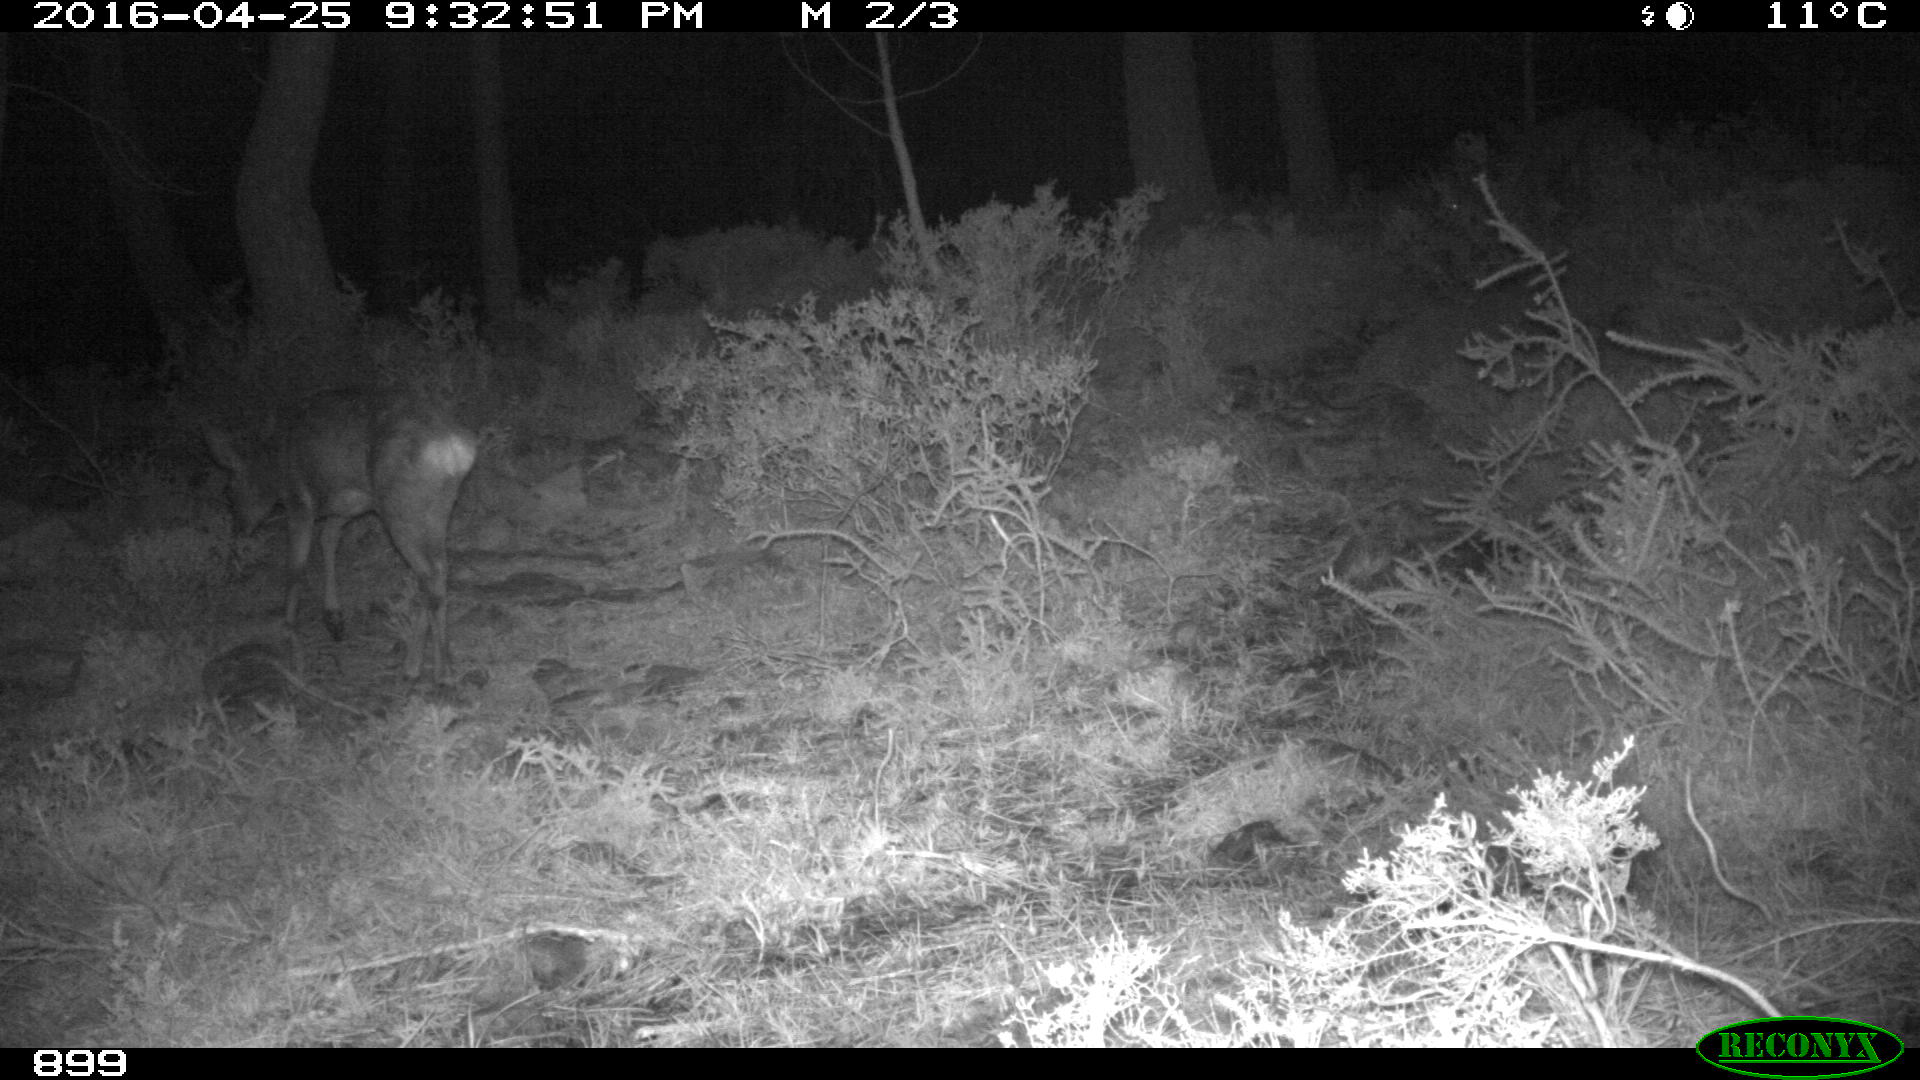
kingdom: Animalia
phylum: Chordata
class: Mammalia
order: Artiodactyla
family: Cervidae
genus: Capreolus
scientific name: Capreolus capreolus
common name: Western roe deer
